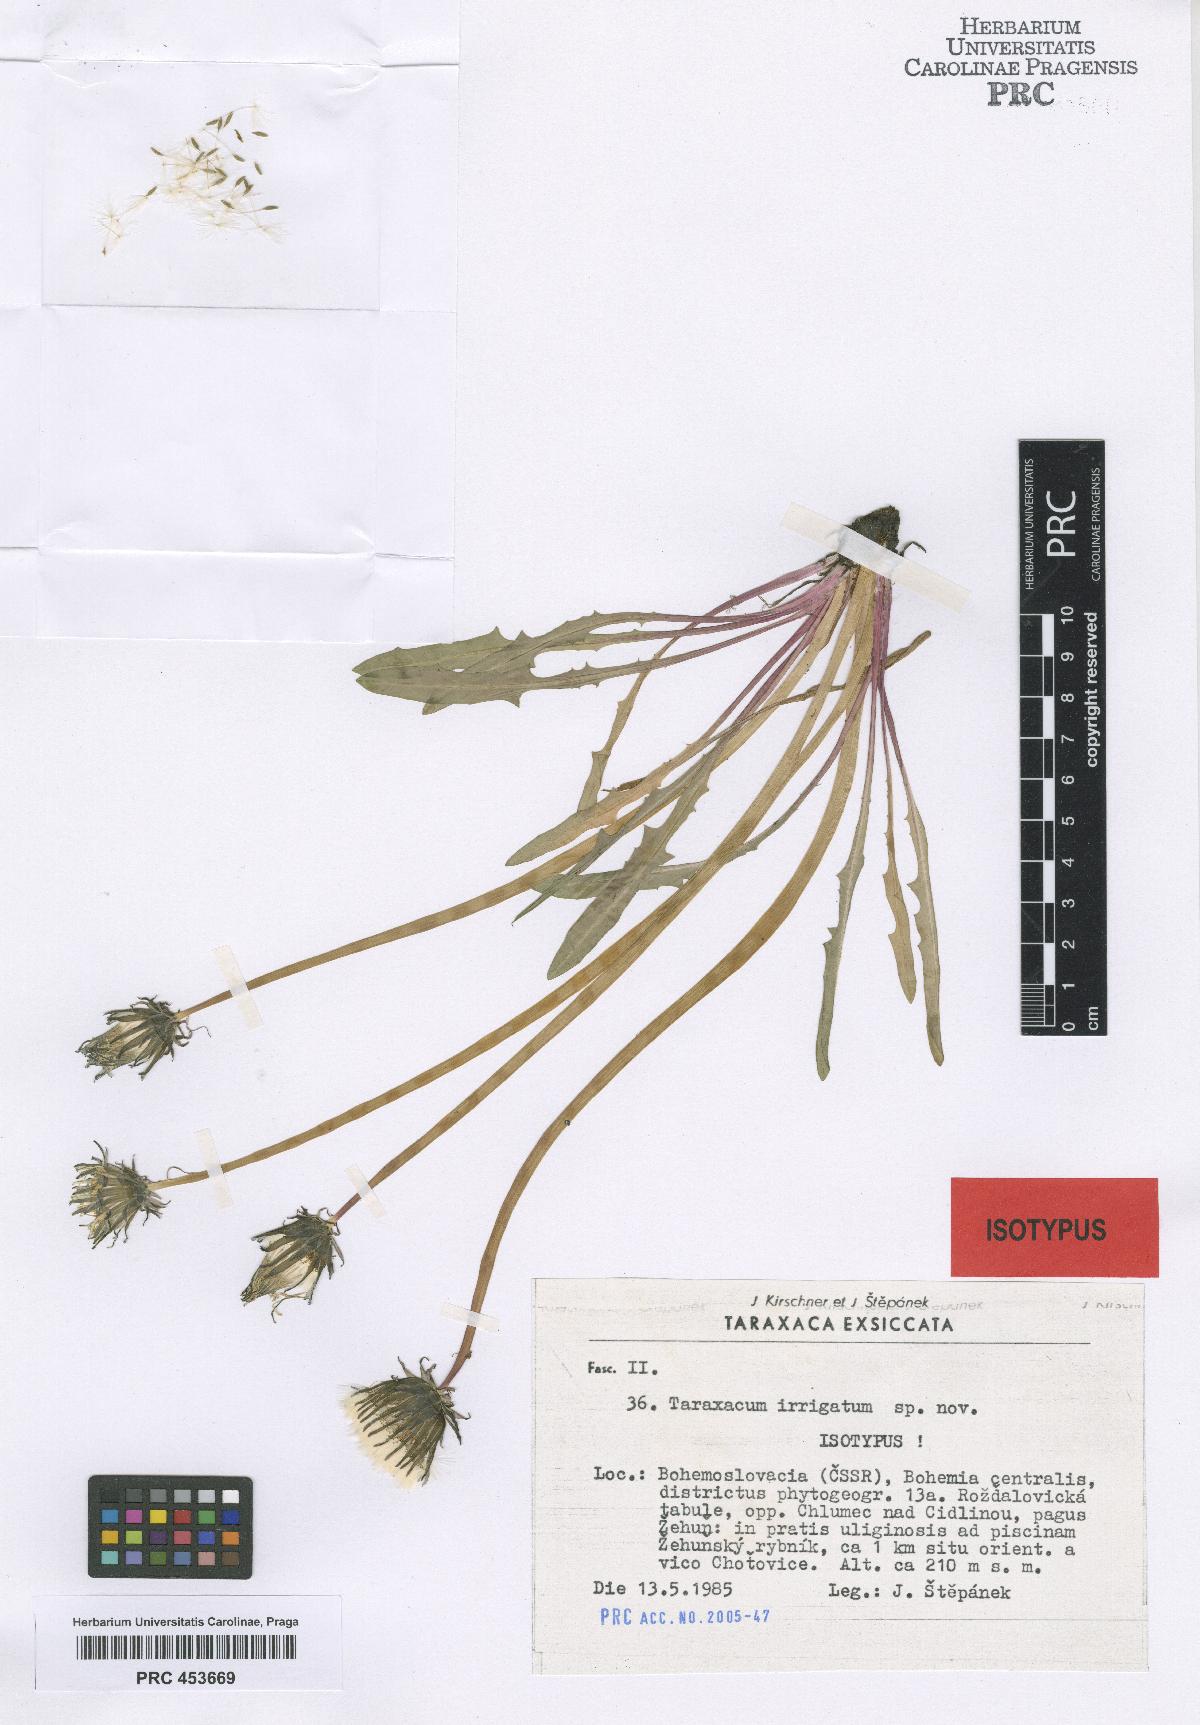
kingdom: Plantae
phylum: Tracheophyta
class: Magnoliopsida
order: Asterales
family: Asteraceae
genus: Taraxacum
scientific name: Taraxacum pseudopalustre
